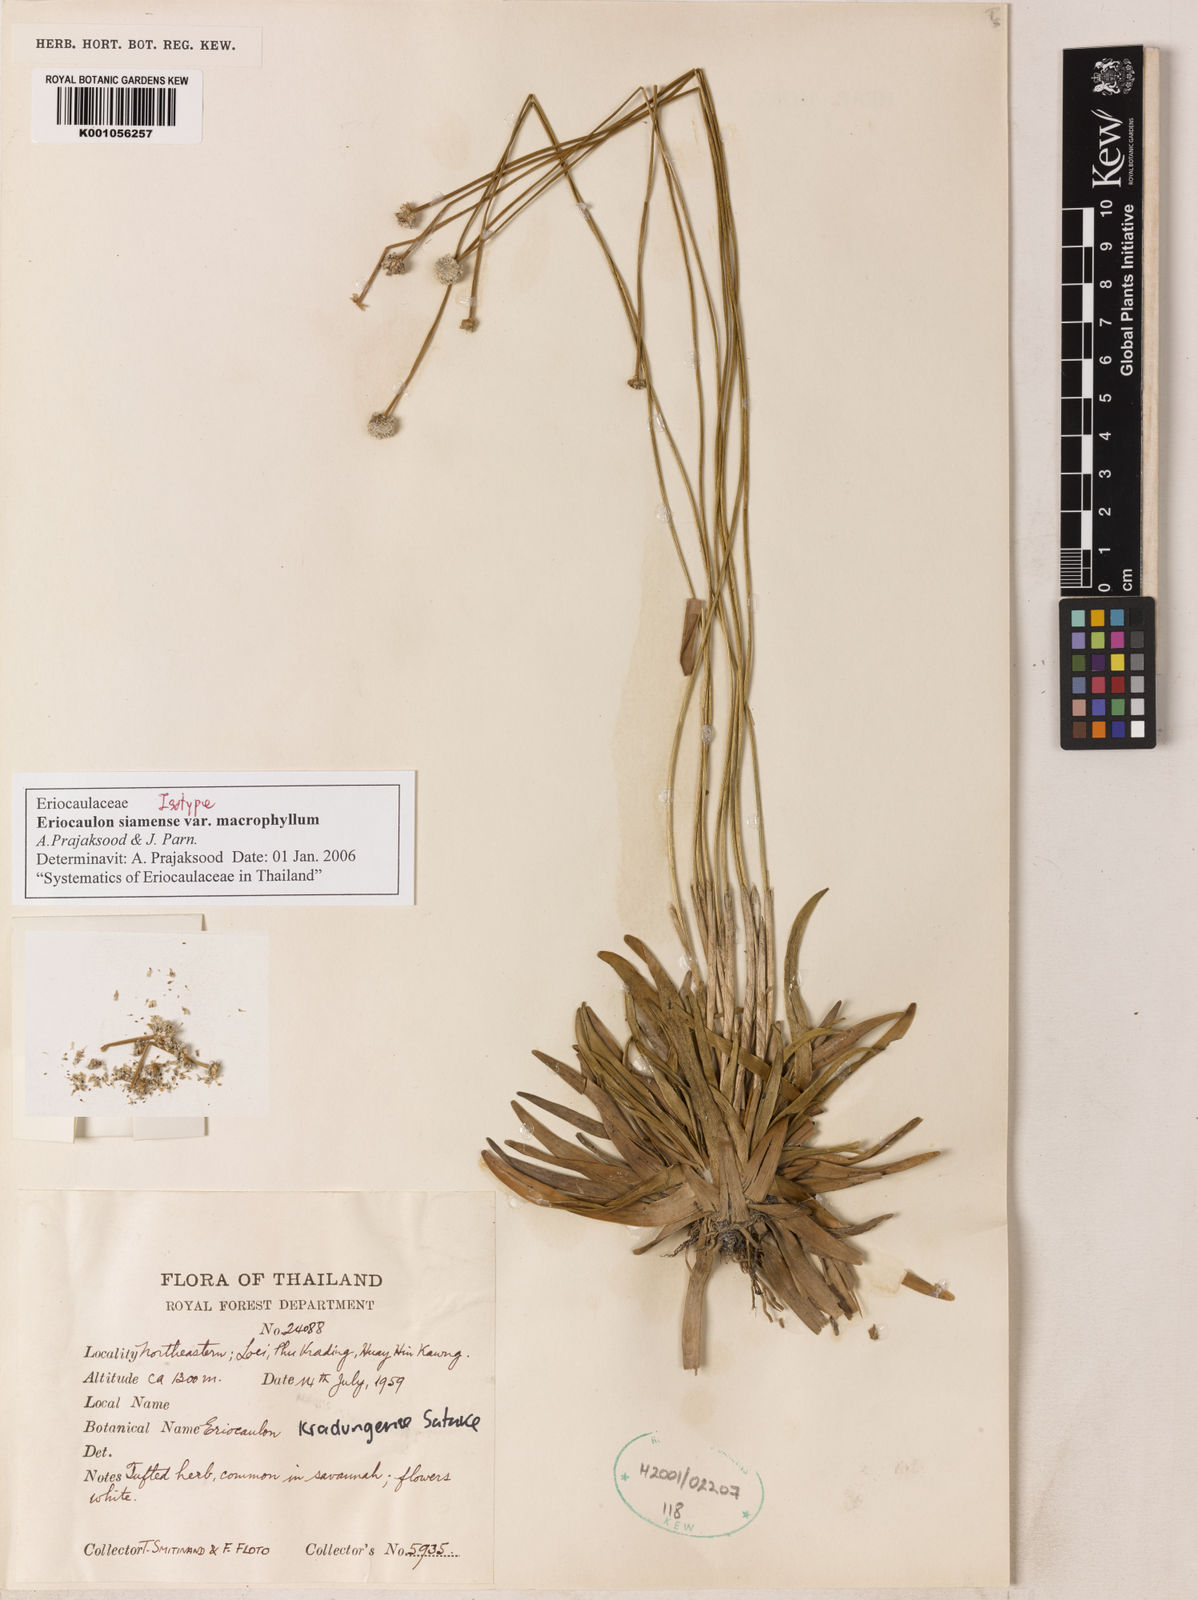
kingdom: Plantae
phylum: Tracheophyta
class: Liliopsida
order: Poales
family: Eriocaulaceae
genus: Eriocaulon
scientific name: Eriocaulon siamense
